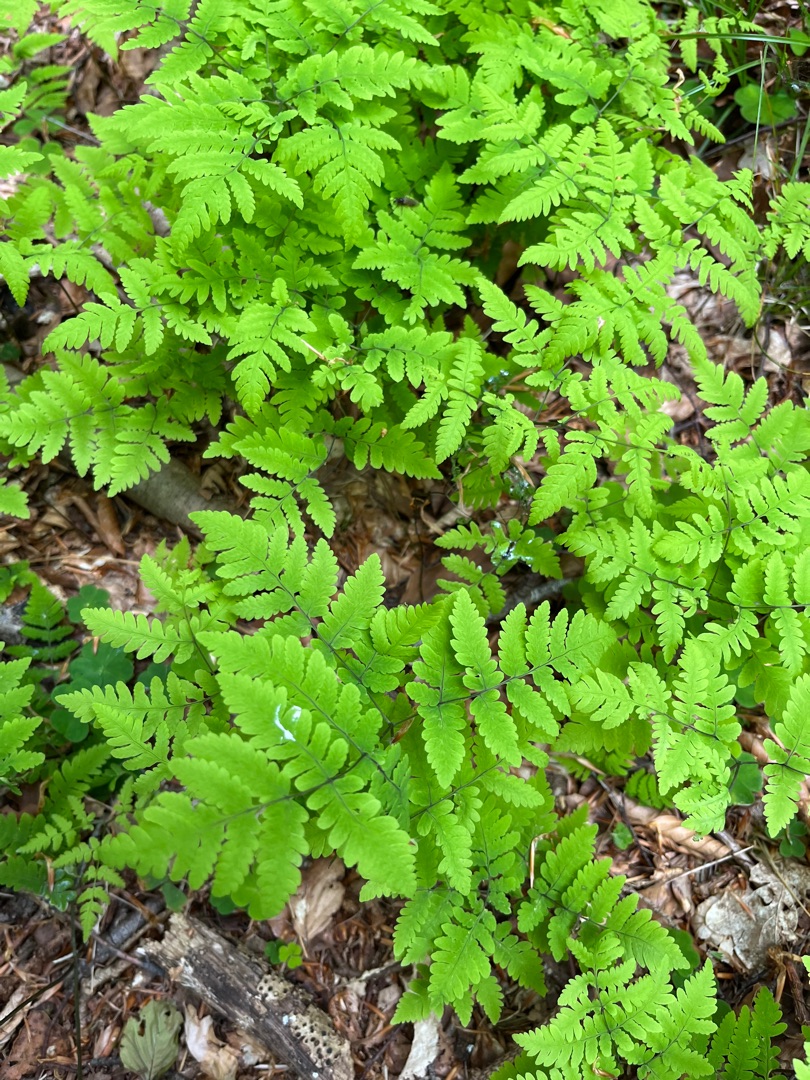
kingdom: Plantae
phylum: Tracheophyta
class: Polypodiopsida
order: Polypodiales
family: Cystopteridaceae
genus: Gymnocarpium
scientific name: Gymnocarpium dryopteris
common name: Tredelt egebregne
